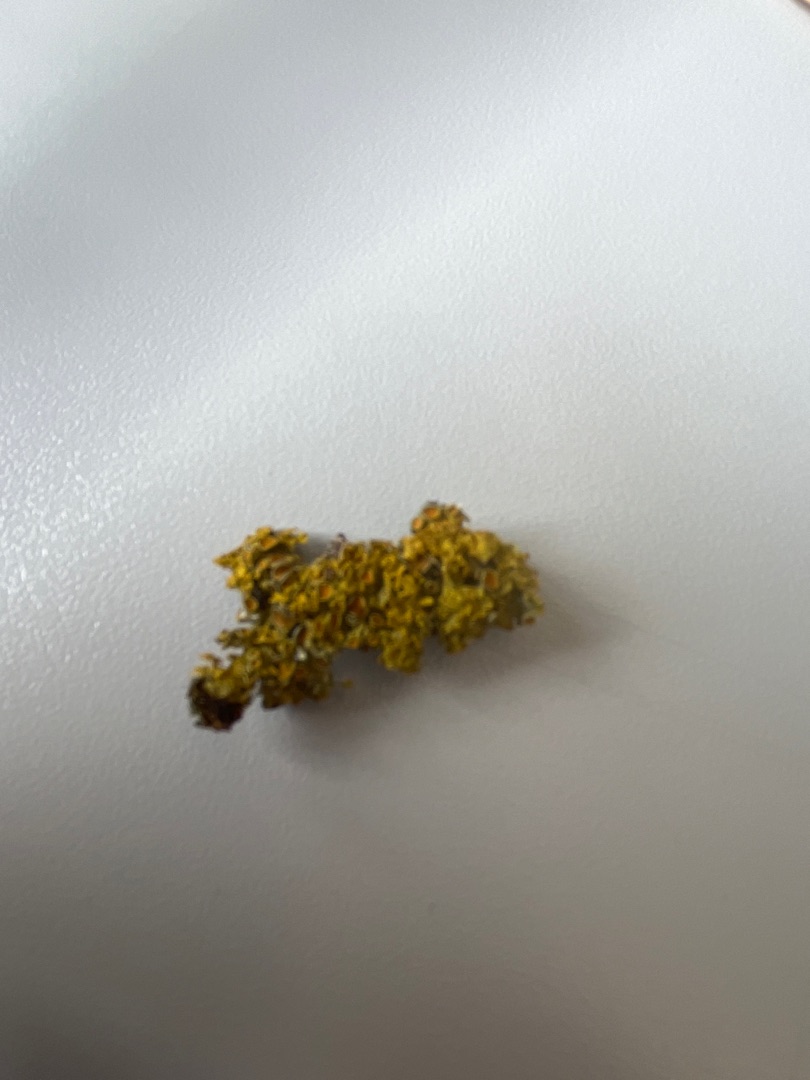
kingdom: Fungi
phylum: Ascomycota
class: Lecanoromycetes
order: Teloschistales
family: Teloschistaceae
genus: Xanthoria
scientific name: Xanthoria parietina
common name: Almindelig væggelav
